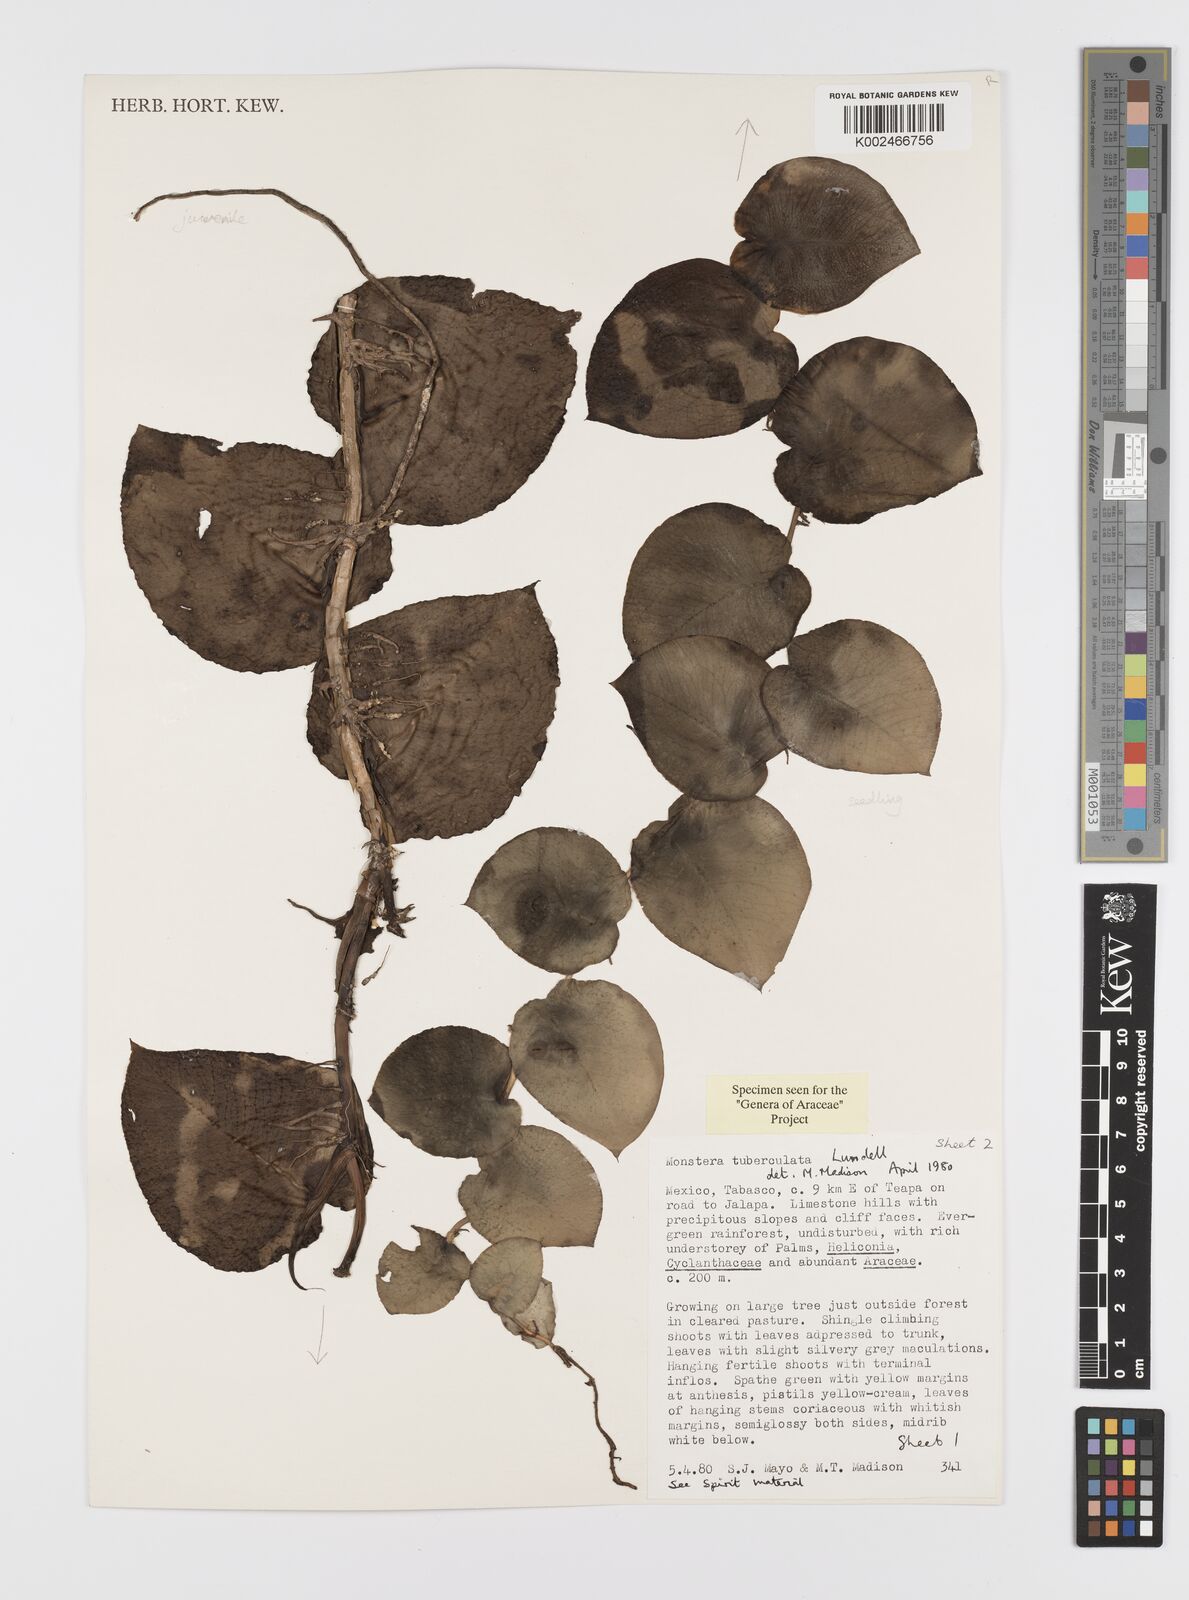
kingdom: Plantae
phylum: Tracheophyta
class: Liliopsida
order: Alismatales
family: Araceae
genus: Monstera
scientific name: Monstera tuberculata
